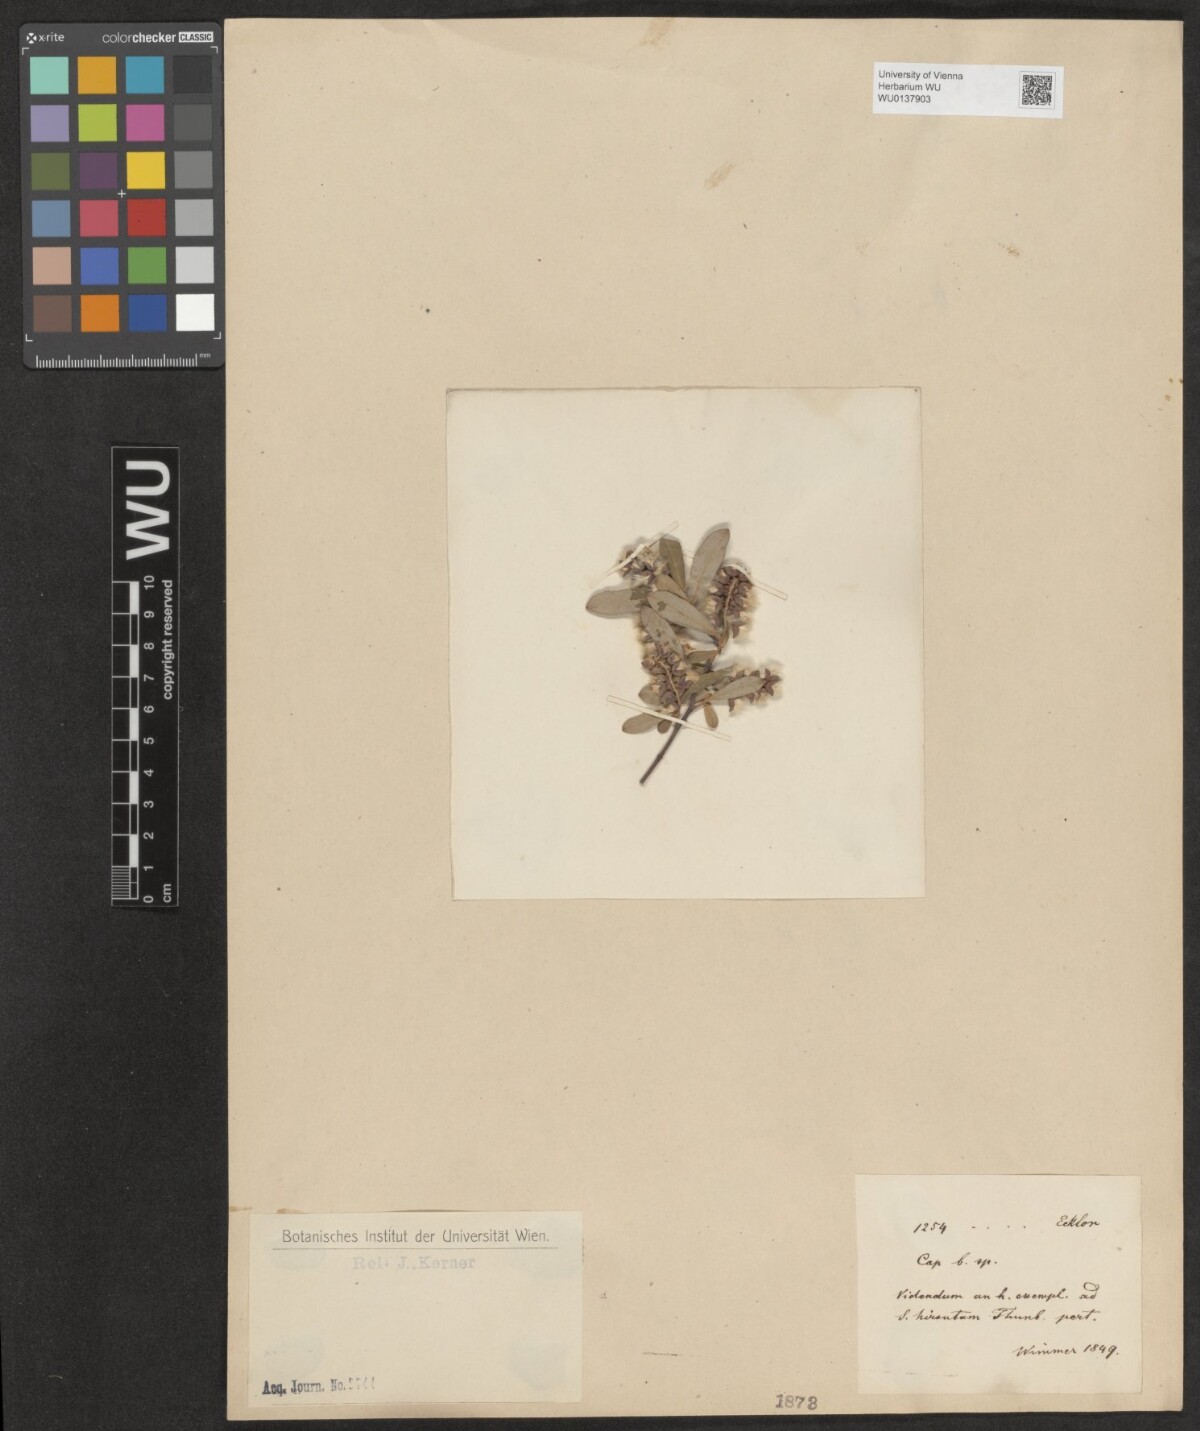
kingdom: Plantae
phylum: Tracheophyta
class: Magnoliopsida
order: Malpighiales
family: Salicaceae
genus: Salix
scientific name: Salix mucronata
